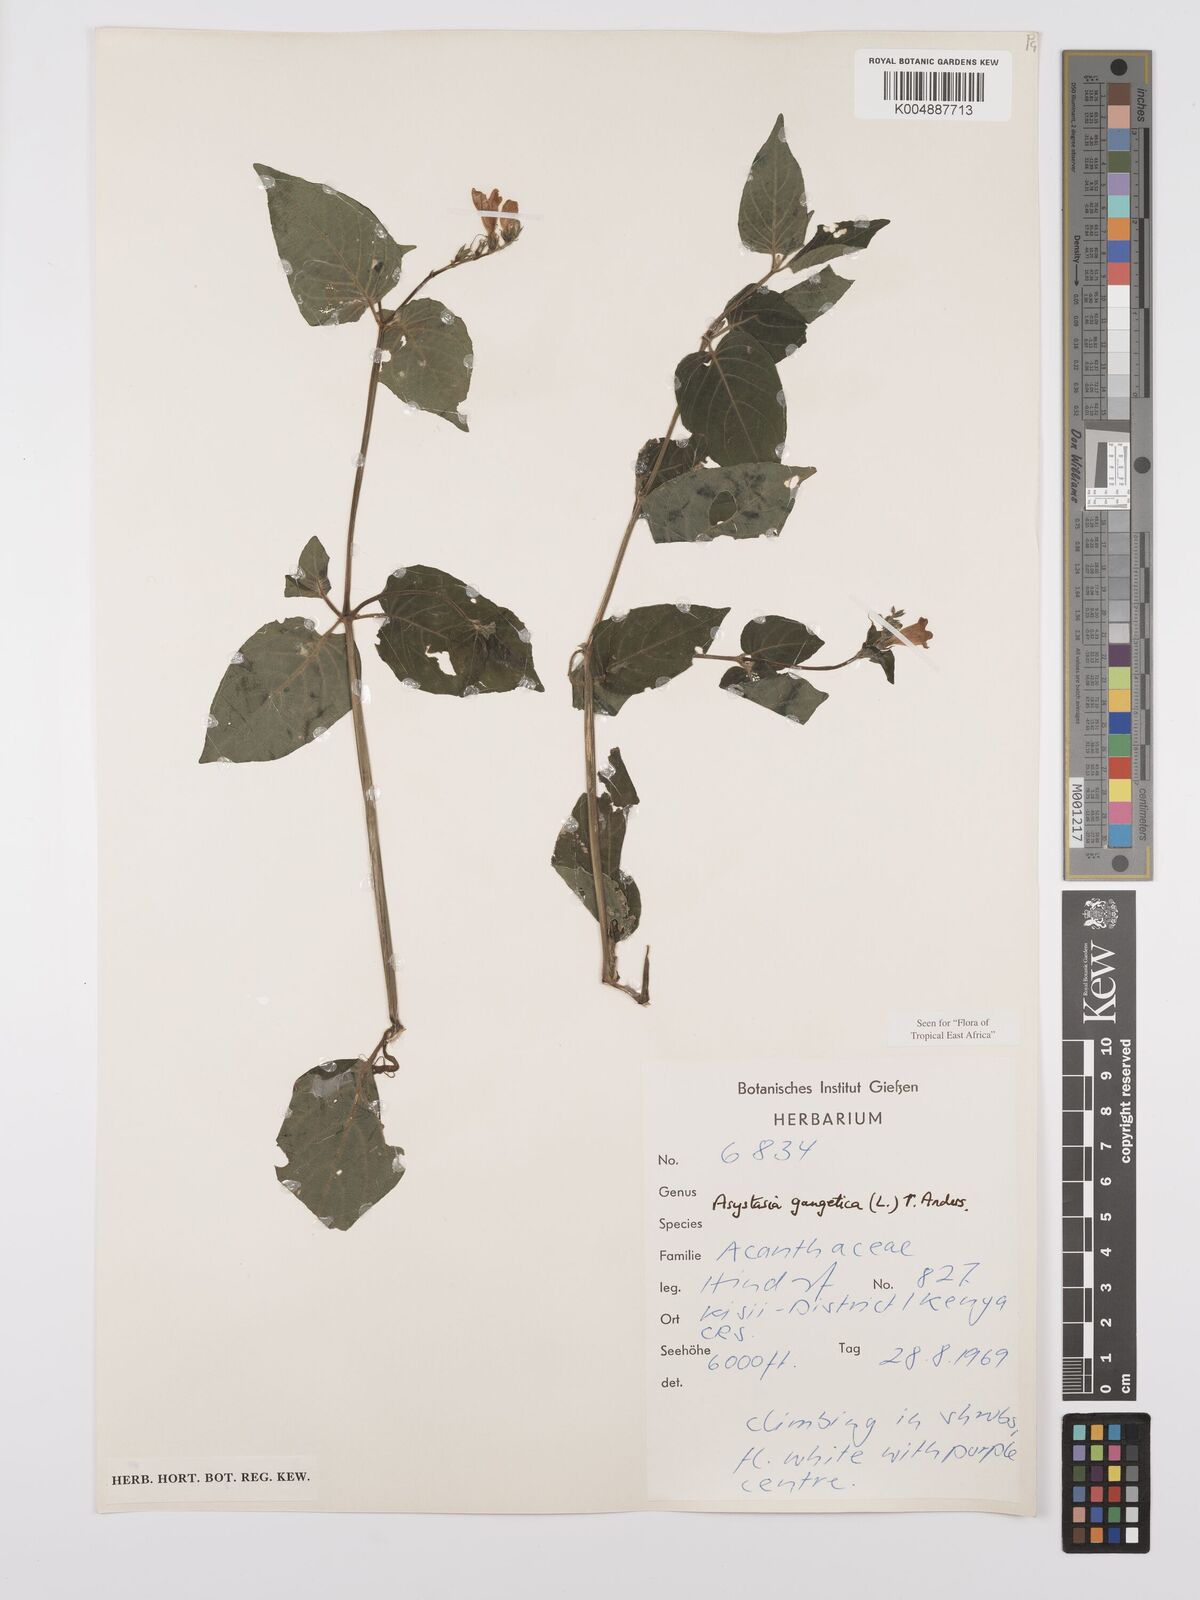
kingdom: Plantae
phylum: Tracheophyta
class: Magnoliopsida
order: Lamiales
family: Acanthaceae
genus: Asystasia
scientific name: Asystasia gangetica
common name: Chinese violet
